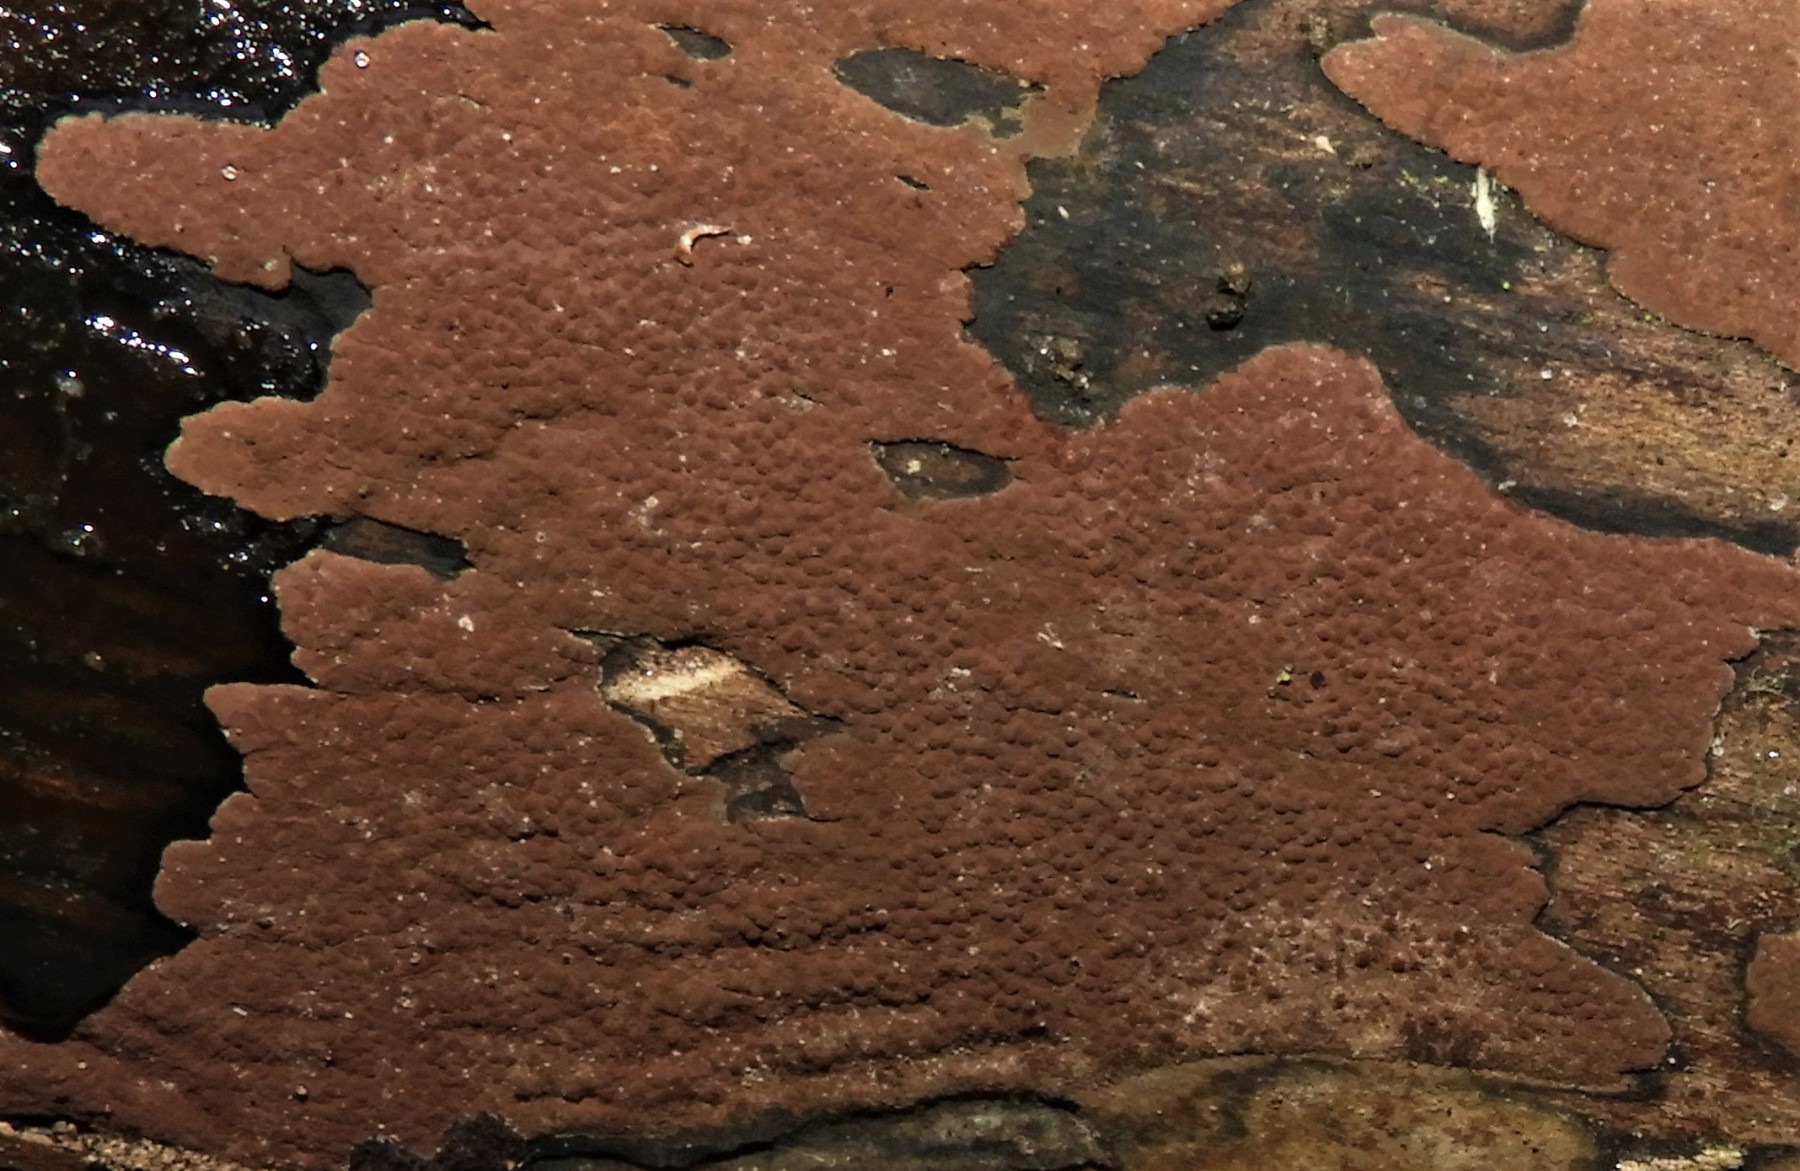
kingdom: Fungi
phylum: Ascomycota
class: Sordariomycetes
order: Xylariales
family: Hypoxylaceae
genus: Hypoxylon
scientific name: Hypoxylon
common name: kulbær
